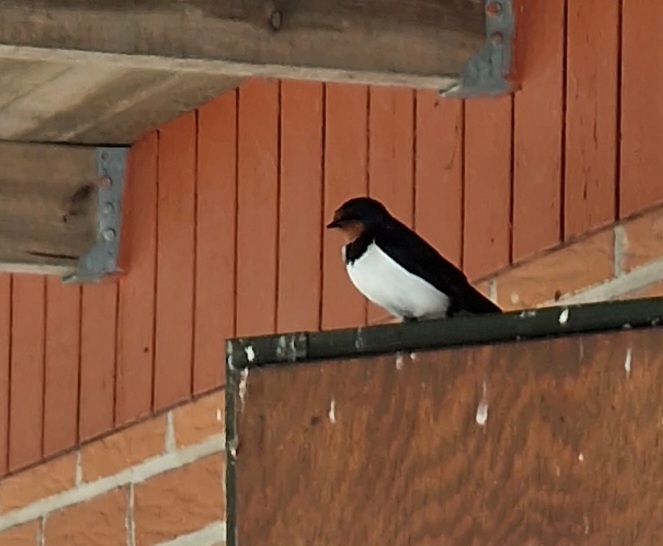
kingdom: Animalia
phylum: Chordata
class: Aves
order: Passeriformes
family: Hirundinidae
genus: Hirundo
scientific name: Hirundo rustica
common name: Landsvale
